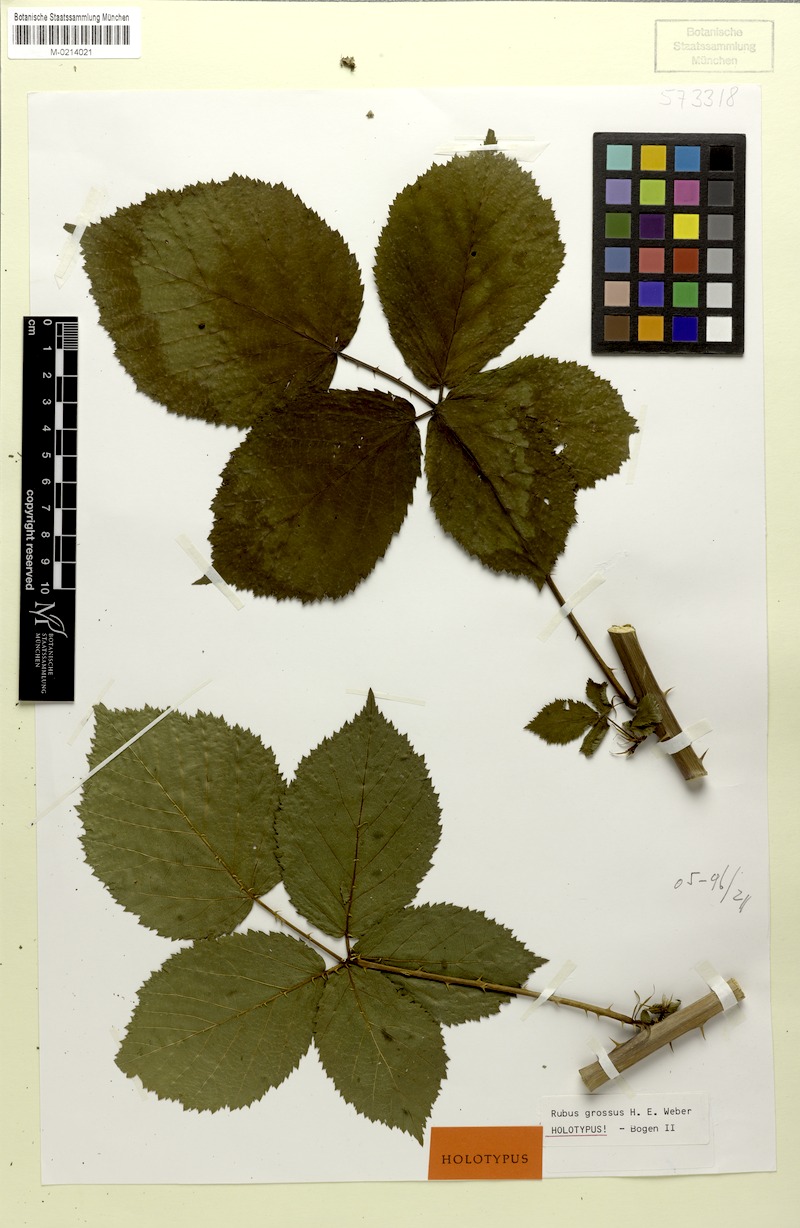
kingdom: Plantae
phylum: Tracheophyta
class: Magnoliopsida
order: Rosales
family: Rosaceae
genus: Rubus
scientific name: Rubus holandrei
